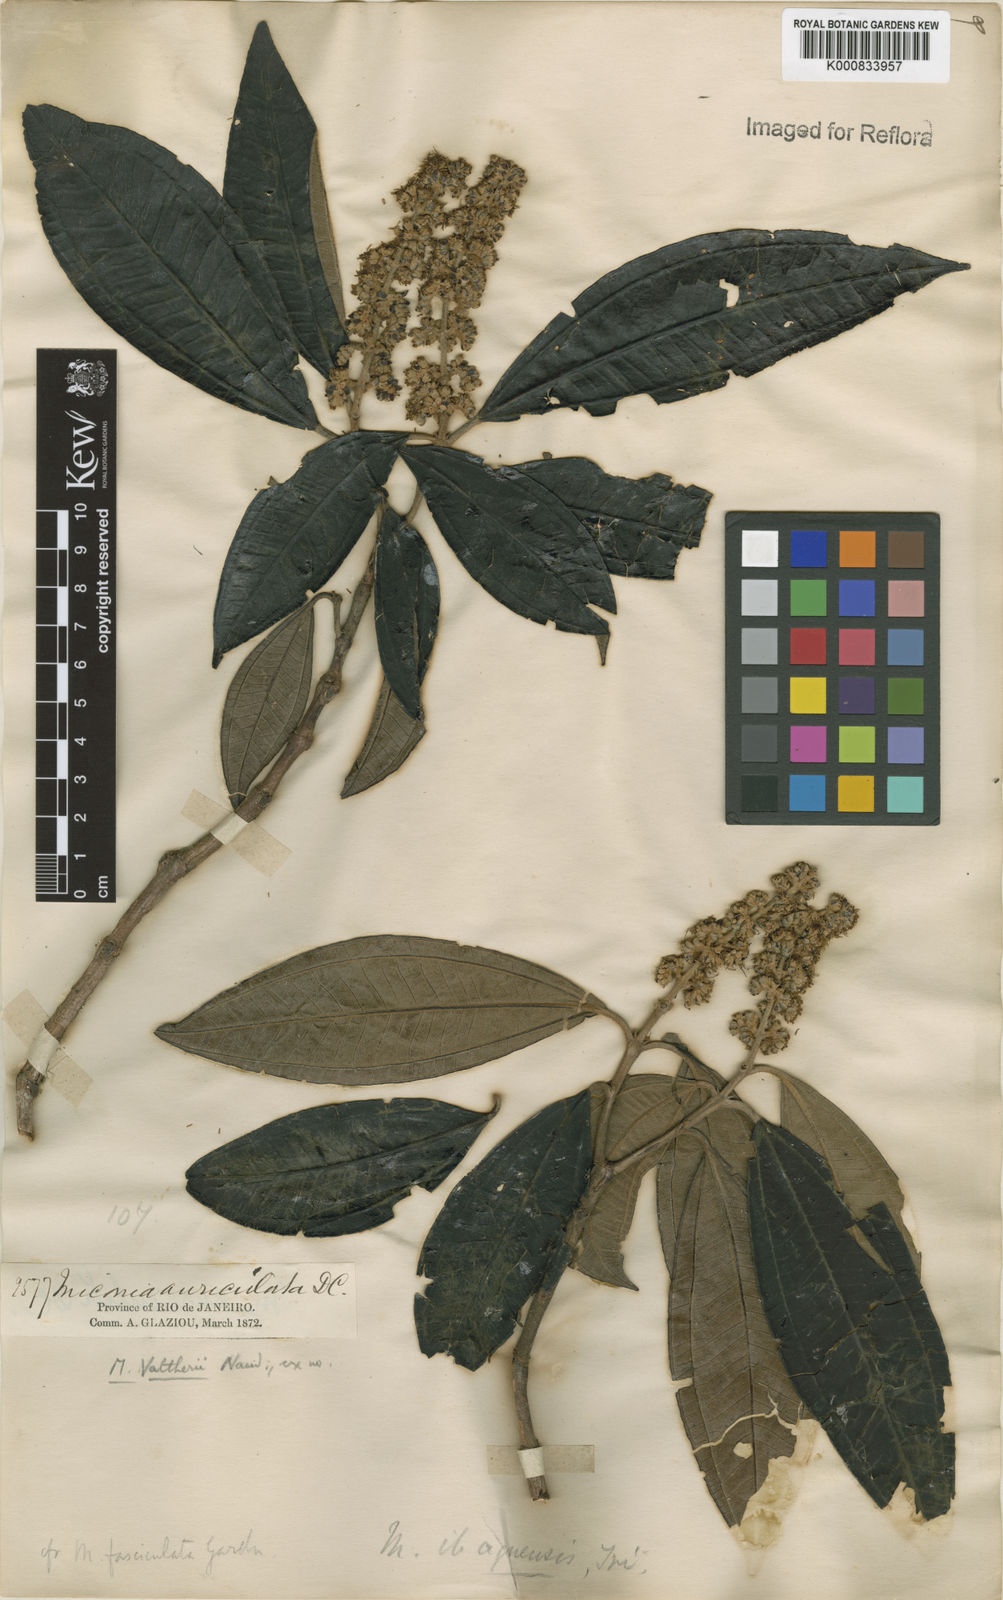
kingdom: Plantae
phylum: Tracheophyta
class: Magnoliopsida
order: Myrtales
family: Melastomataceae
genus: Miconia
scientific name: Miconia valtheri
